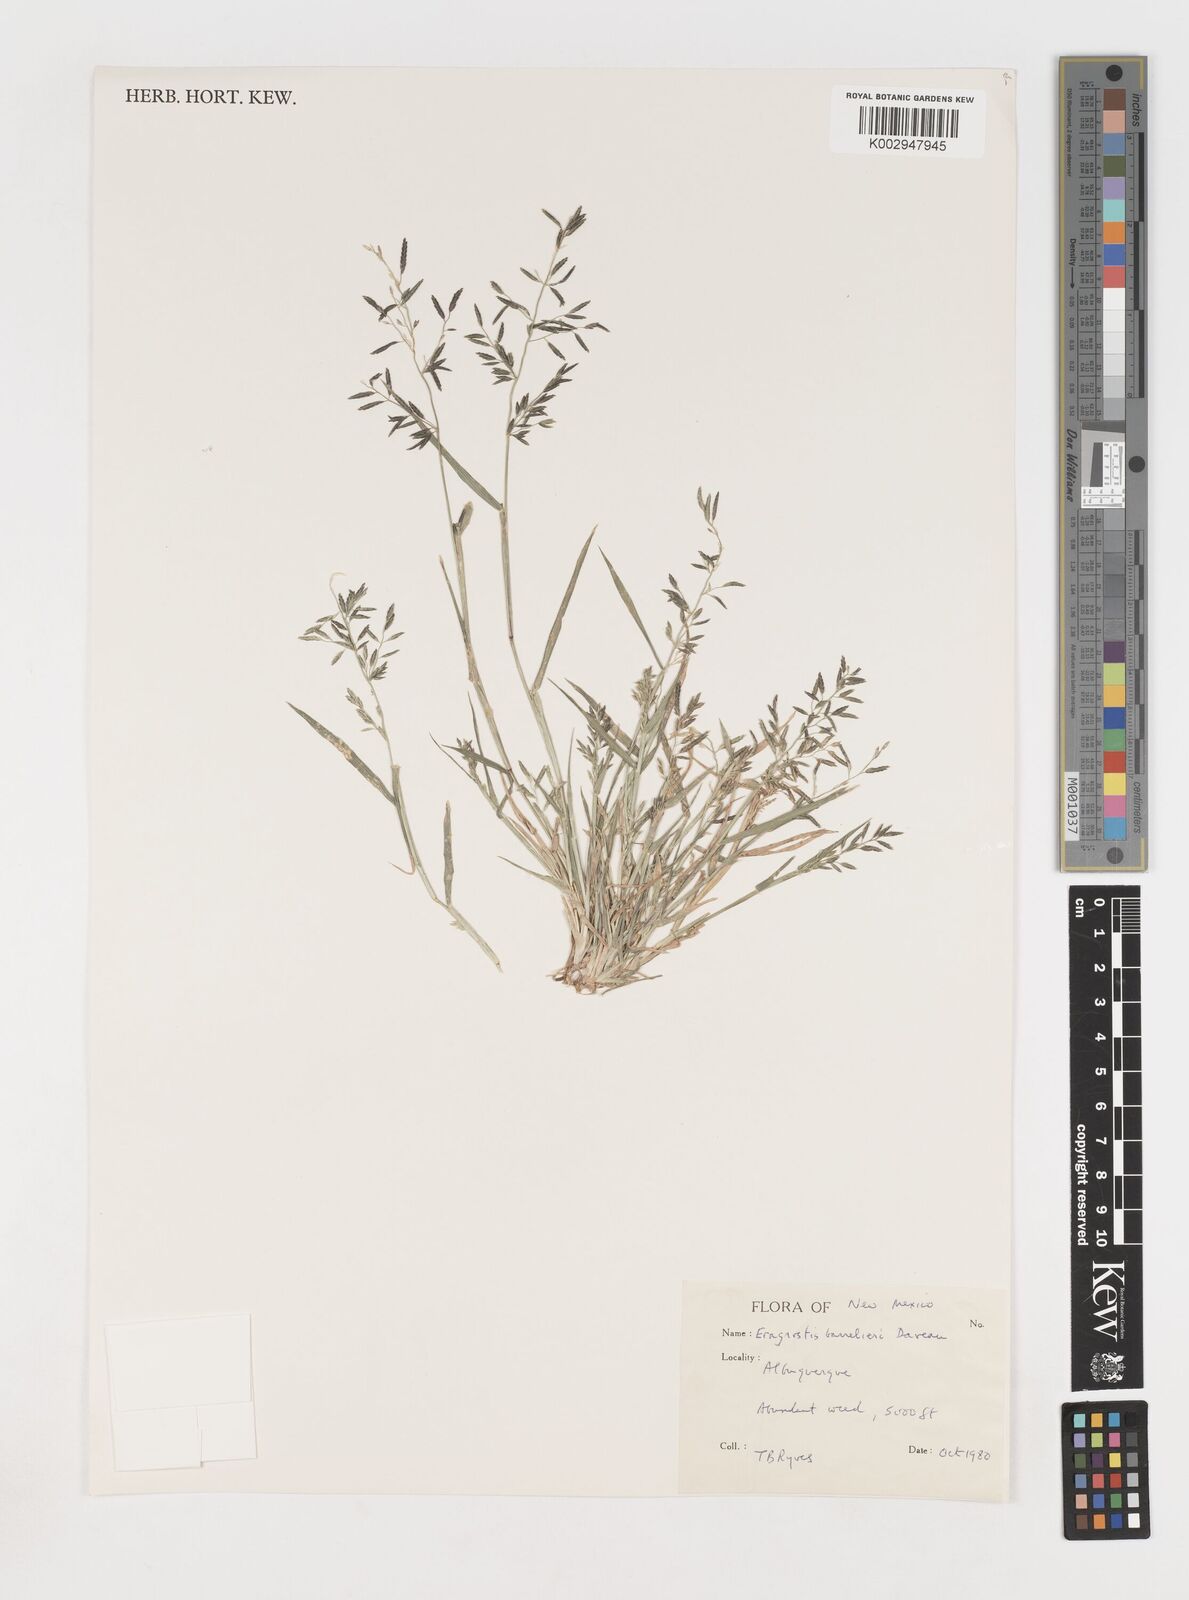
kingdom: Plantae
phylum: Tracheophyta
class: Liliopsida
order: Poales
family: Poaceae
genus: Eragrostis
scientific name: Eragrostis barrelieri
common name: Mediterranean lovegrass
